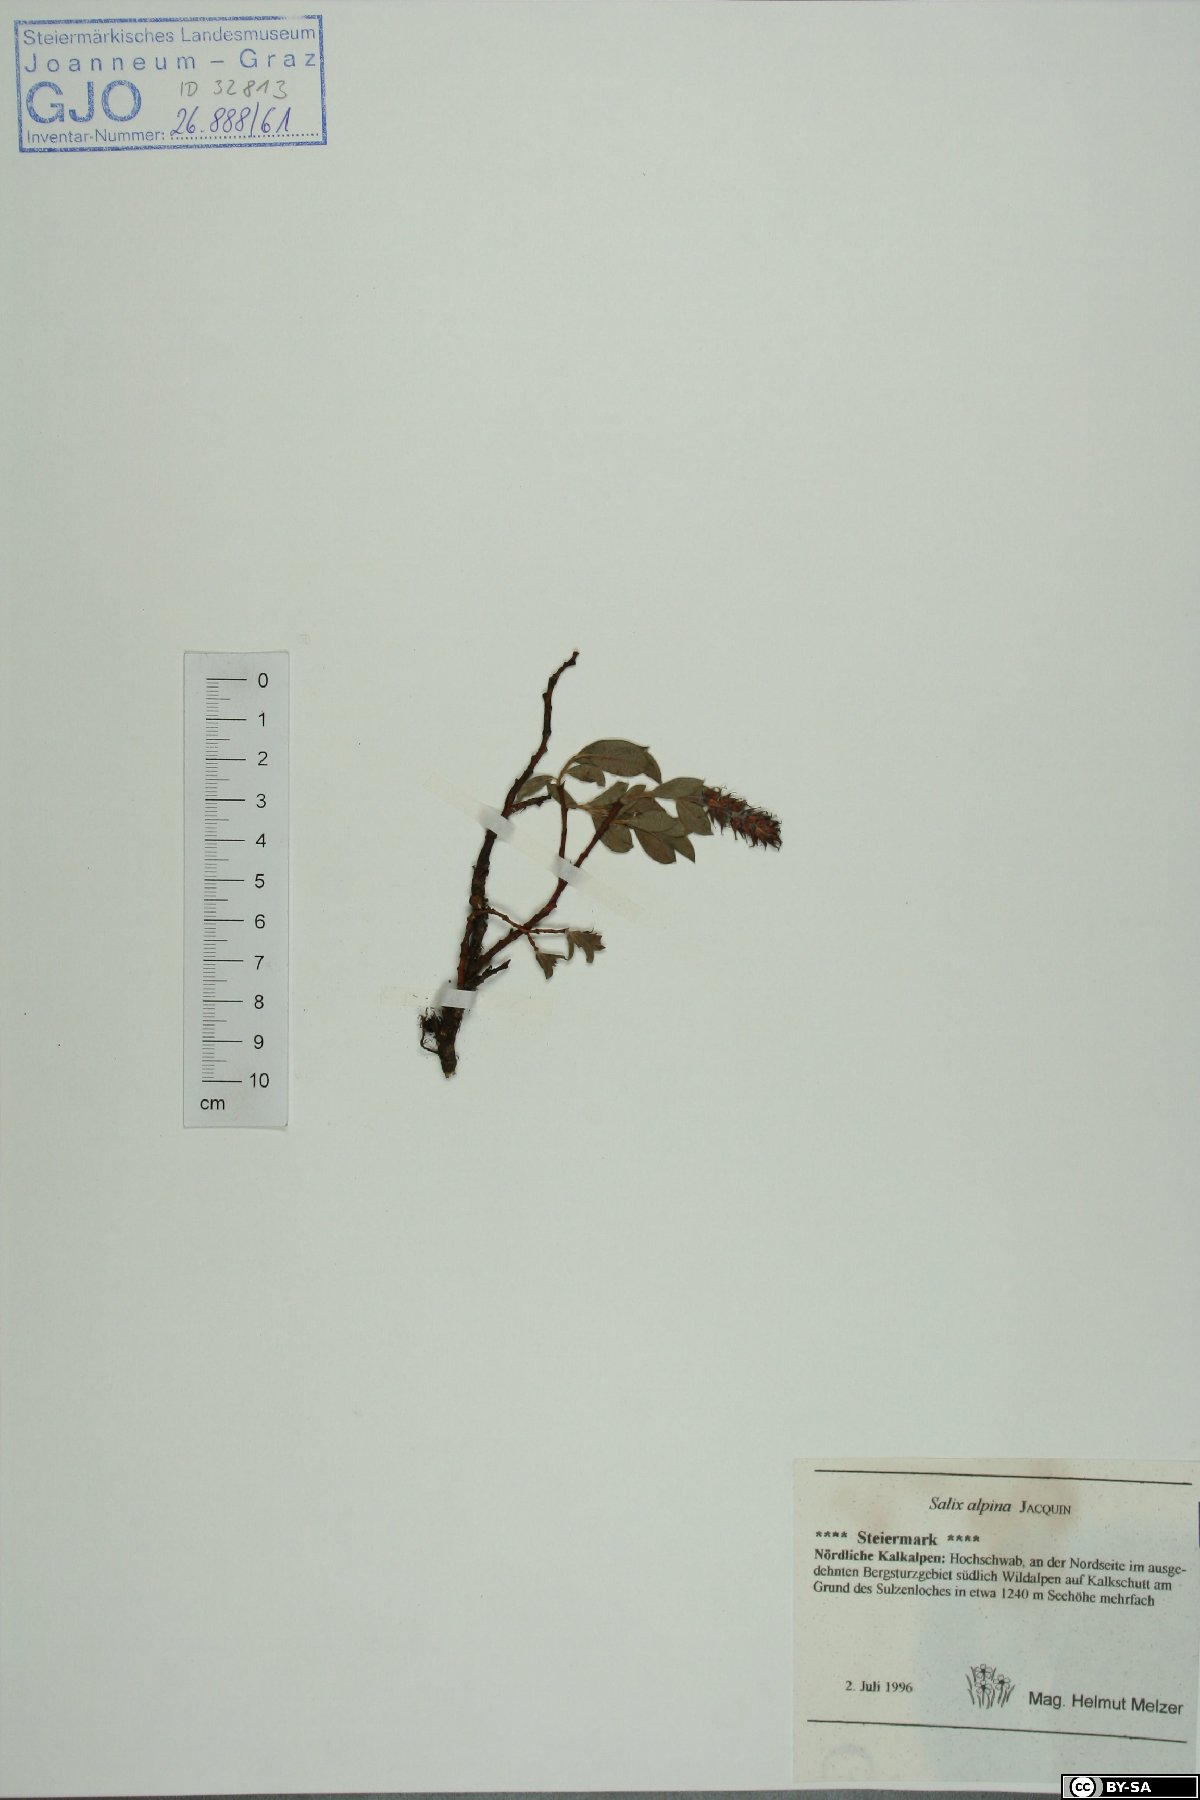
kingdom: Plantae
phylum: Tracheophyta
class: Magnoliopsida
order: Malpighiales
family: Salicaceae
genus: Salix
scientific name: Salix alpina
